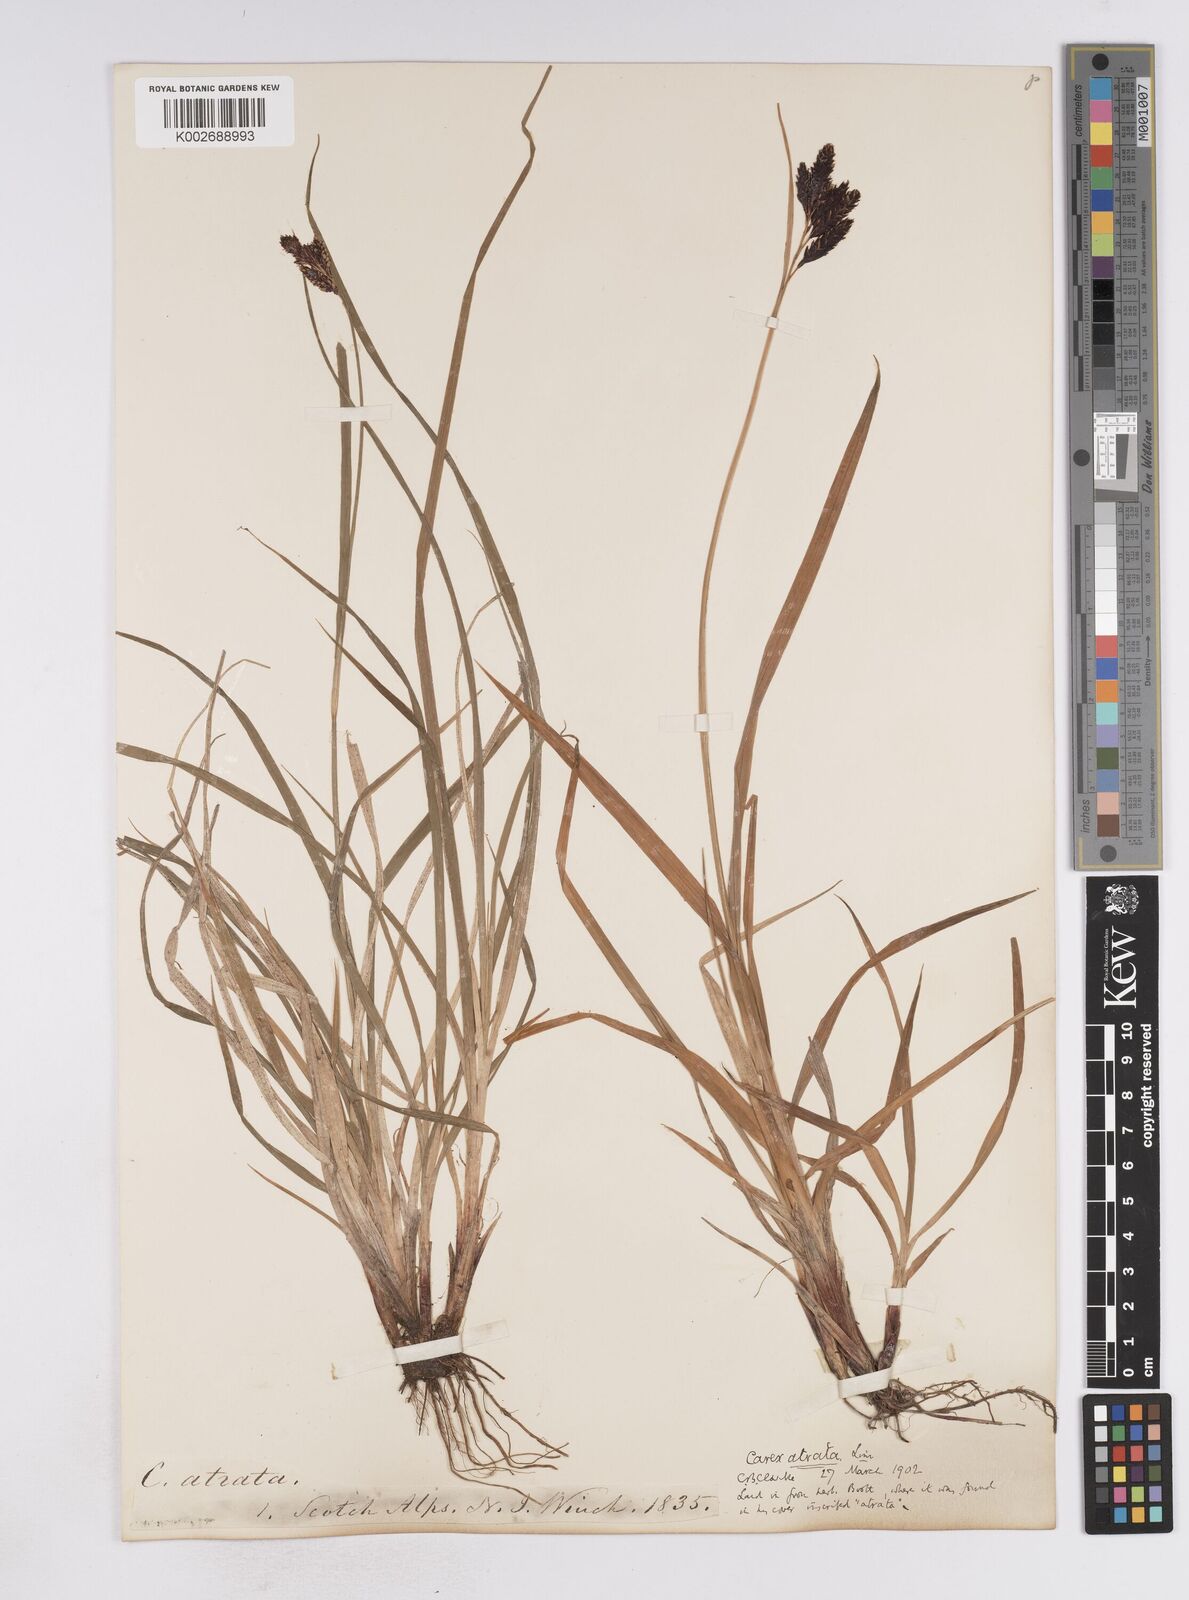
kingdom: Plantae
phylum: Tracheophyta
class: Liliopsida
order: Poales
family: Cyperaceae
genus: Carex
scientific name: Carex atrata
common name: Black alpine sedge
